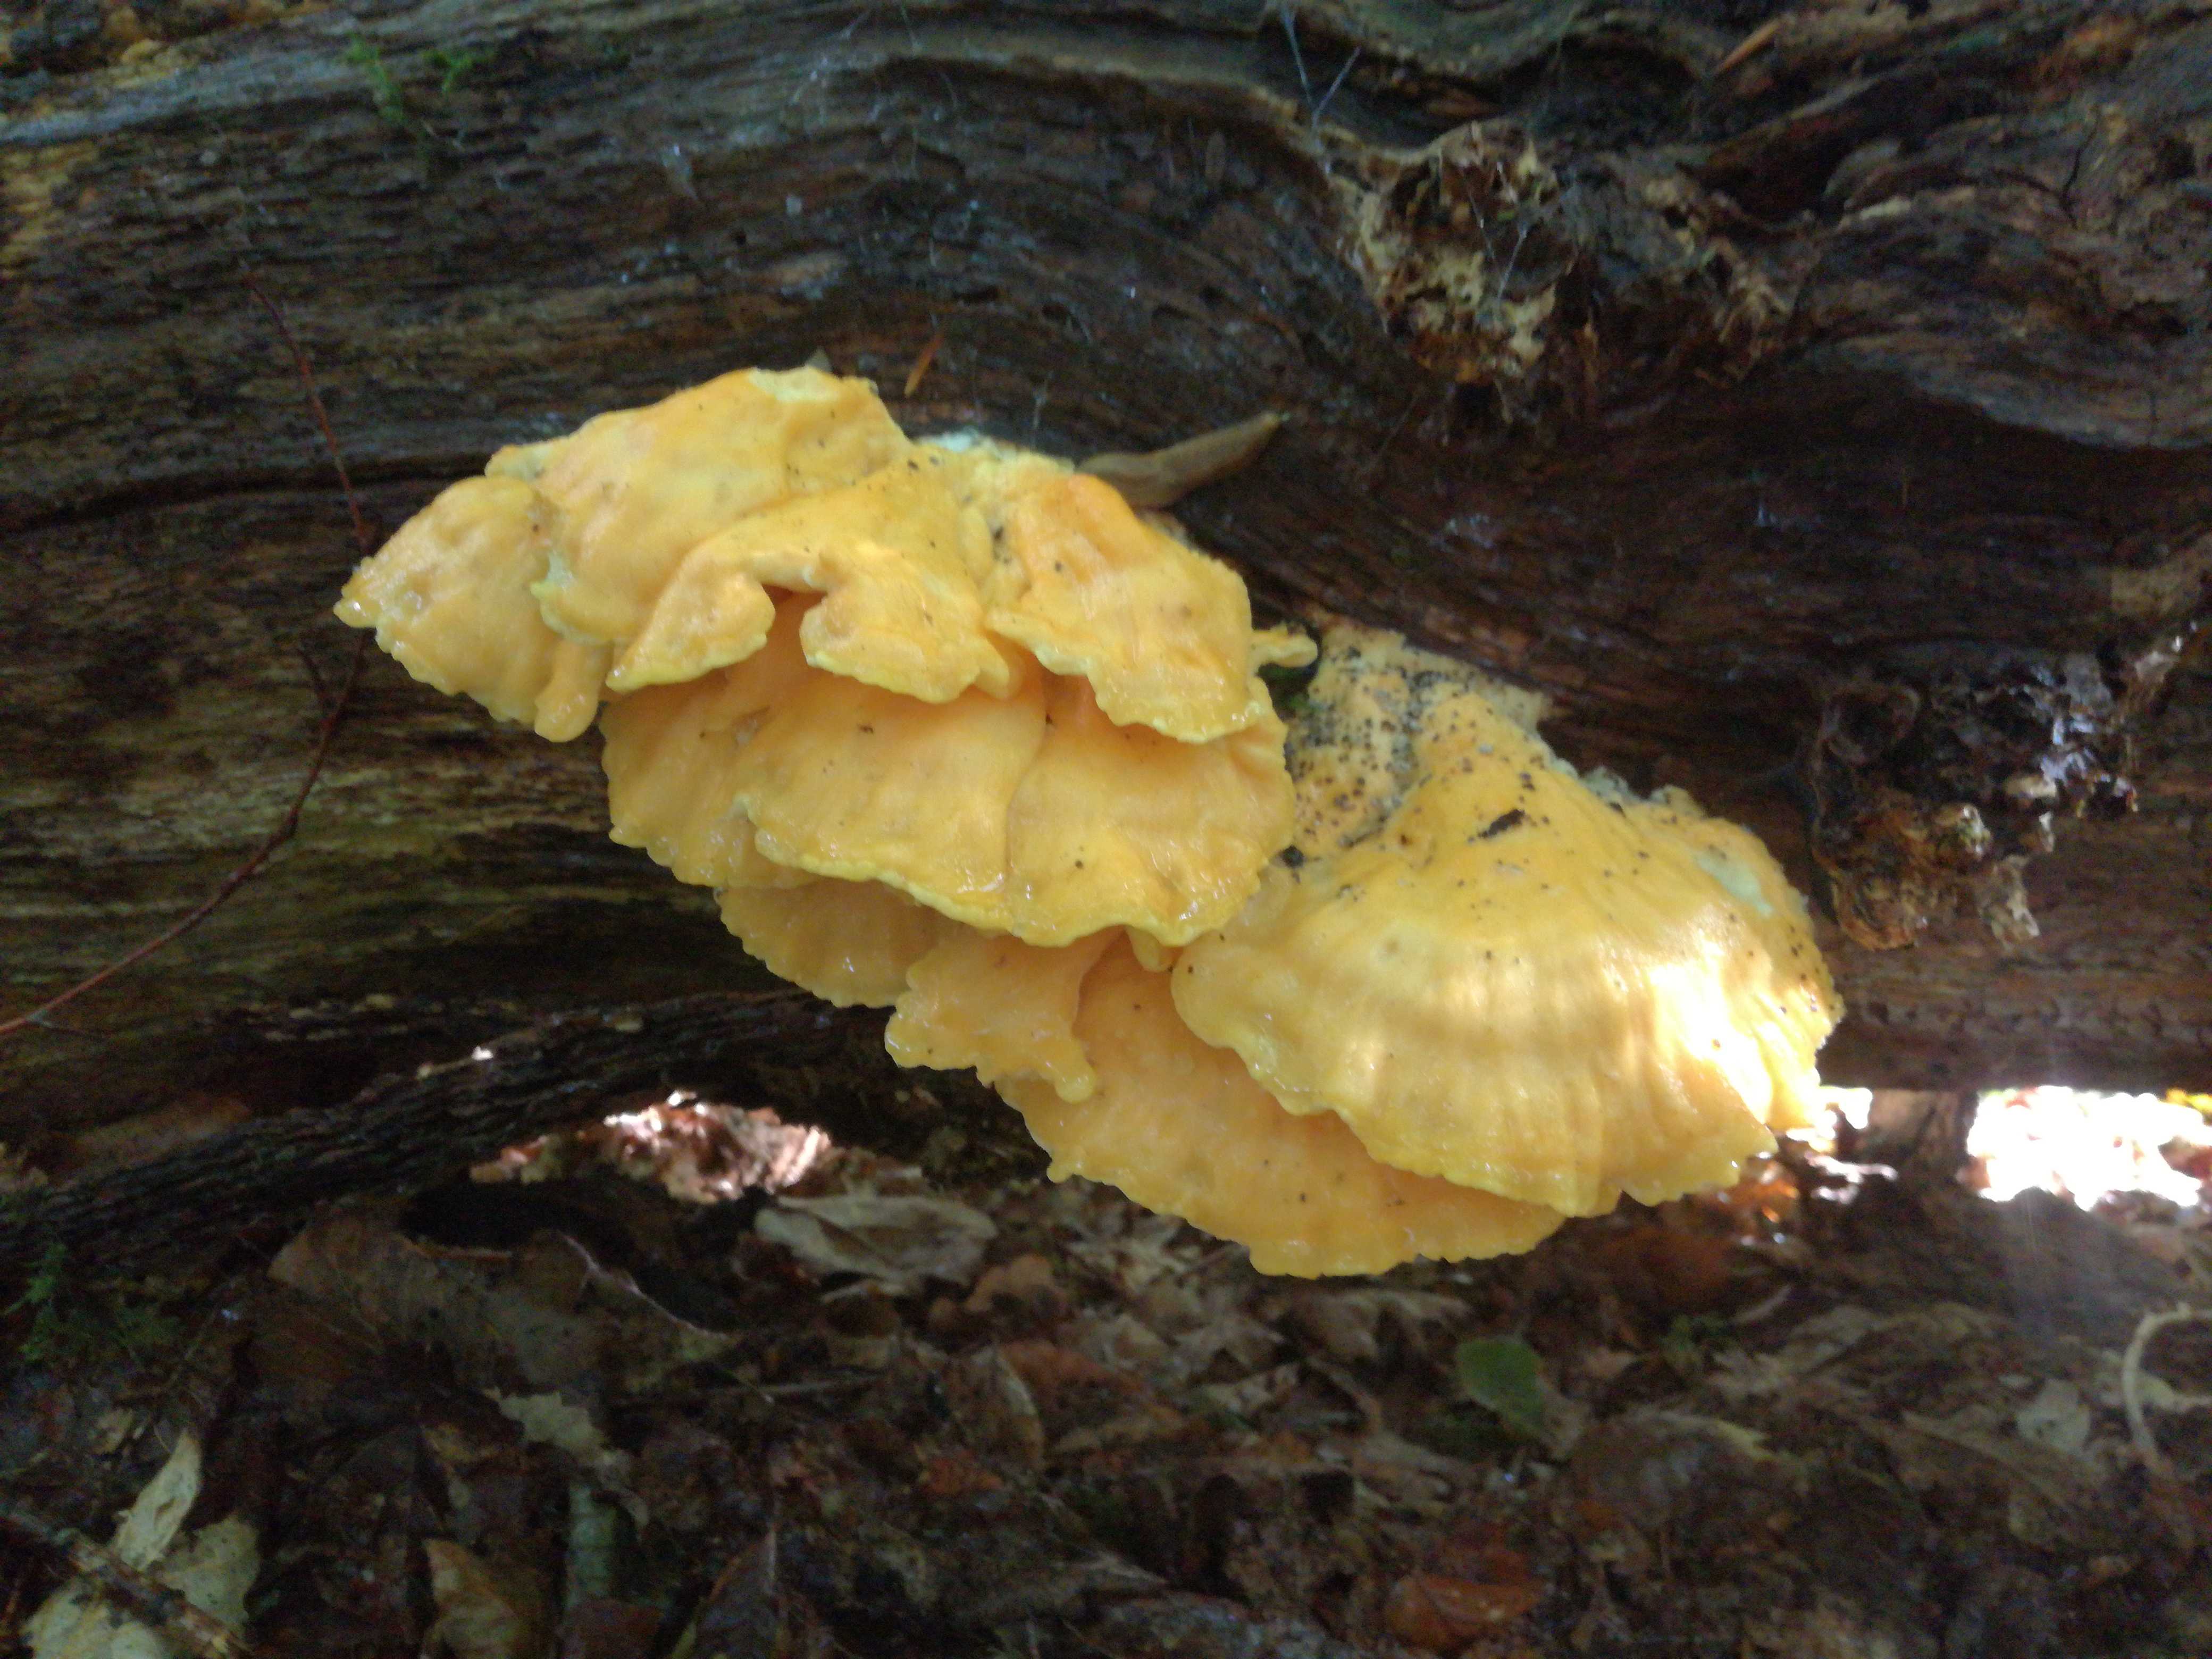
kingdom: Fungi
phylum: Basidiomycota
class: Agaricomycetes
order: Polyporales
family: Laetiporaceae
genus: Laetiporus
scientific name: Laetiporus
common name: svovlporesvamp
